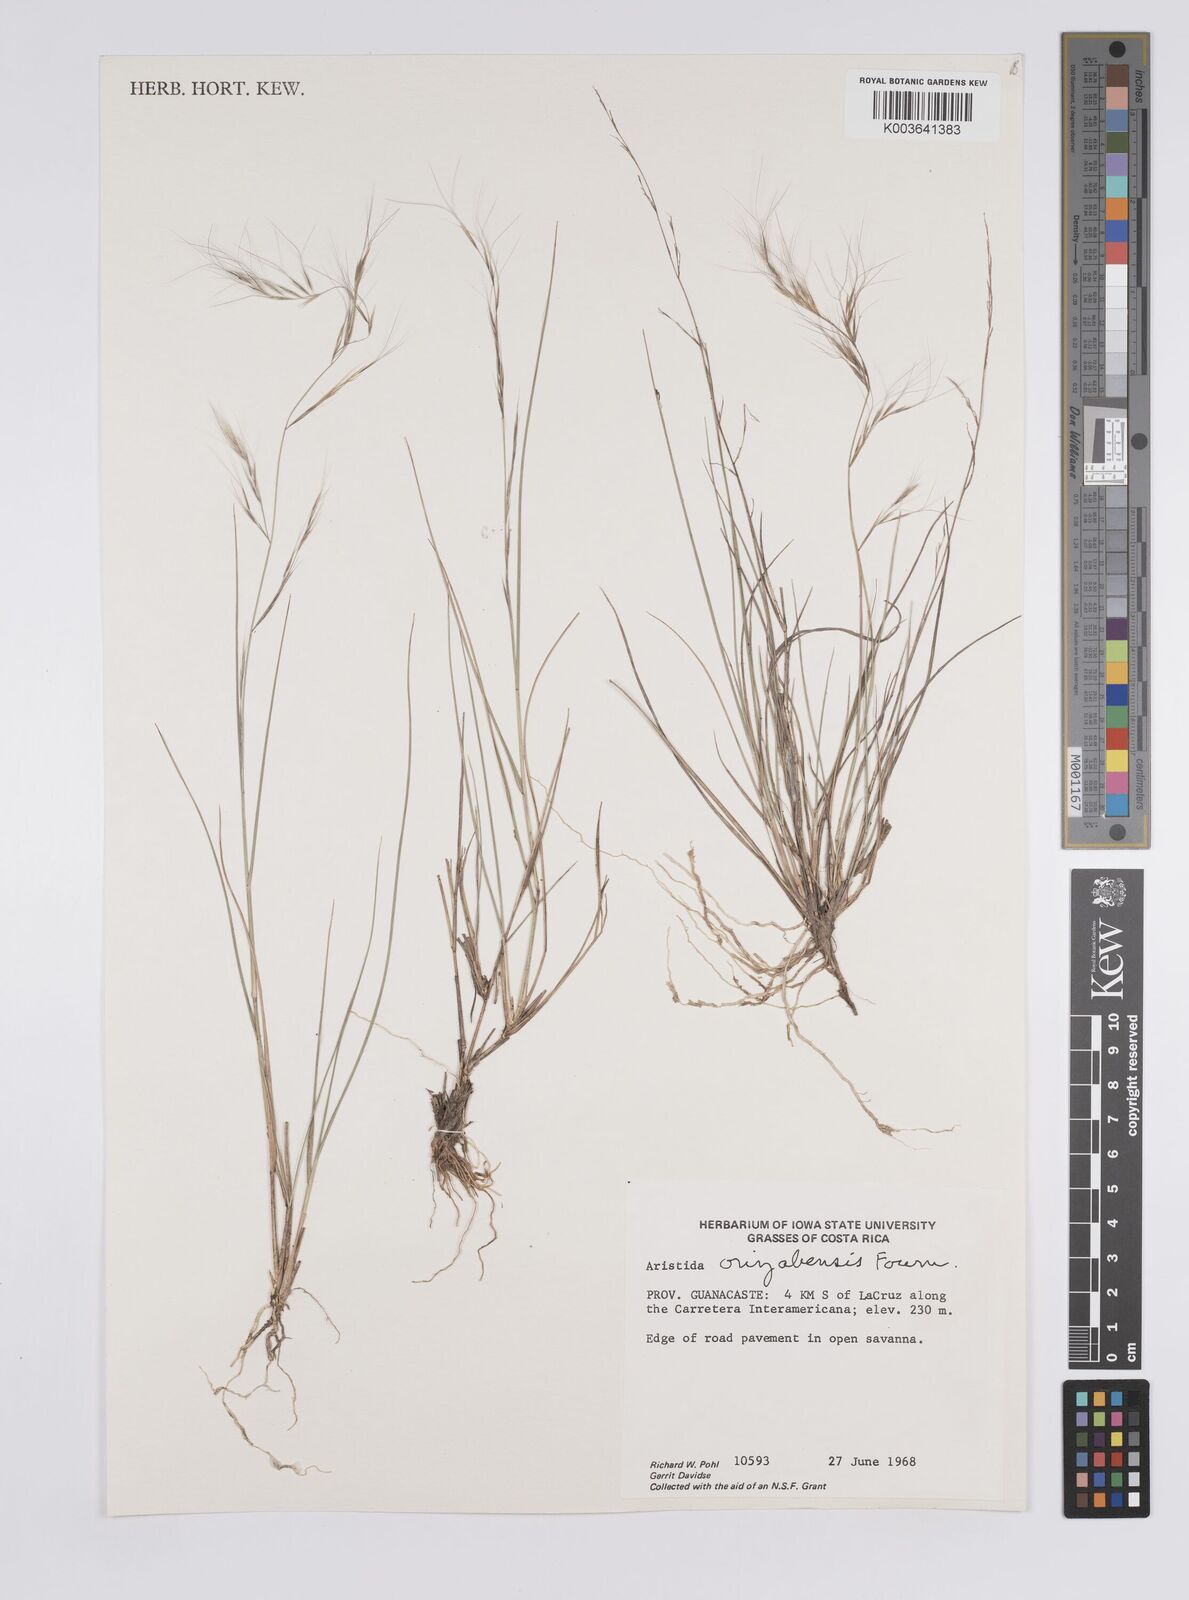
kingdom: Plantae
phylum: Tracheophyta
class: Liliopsida
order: Poales
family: Poaceae
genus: Aristida
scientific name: Aristida gibbosa
